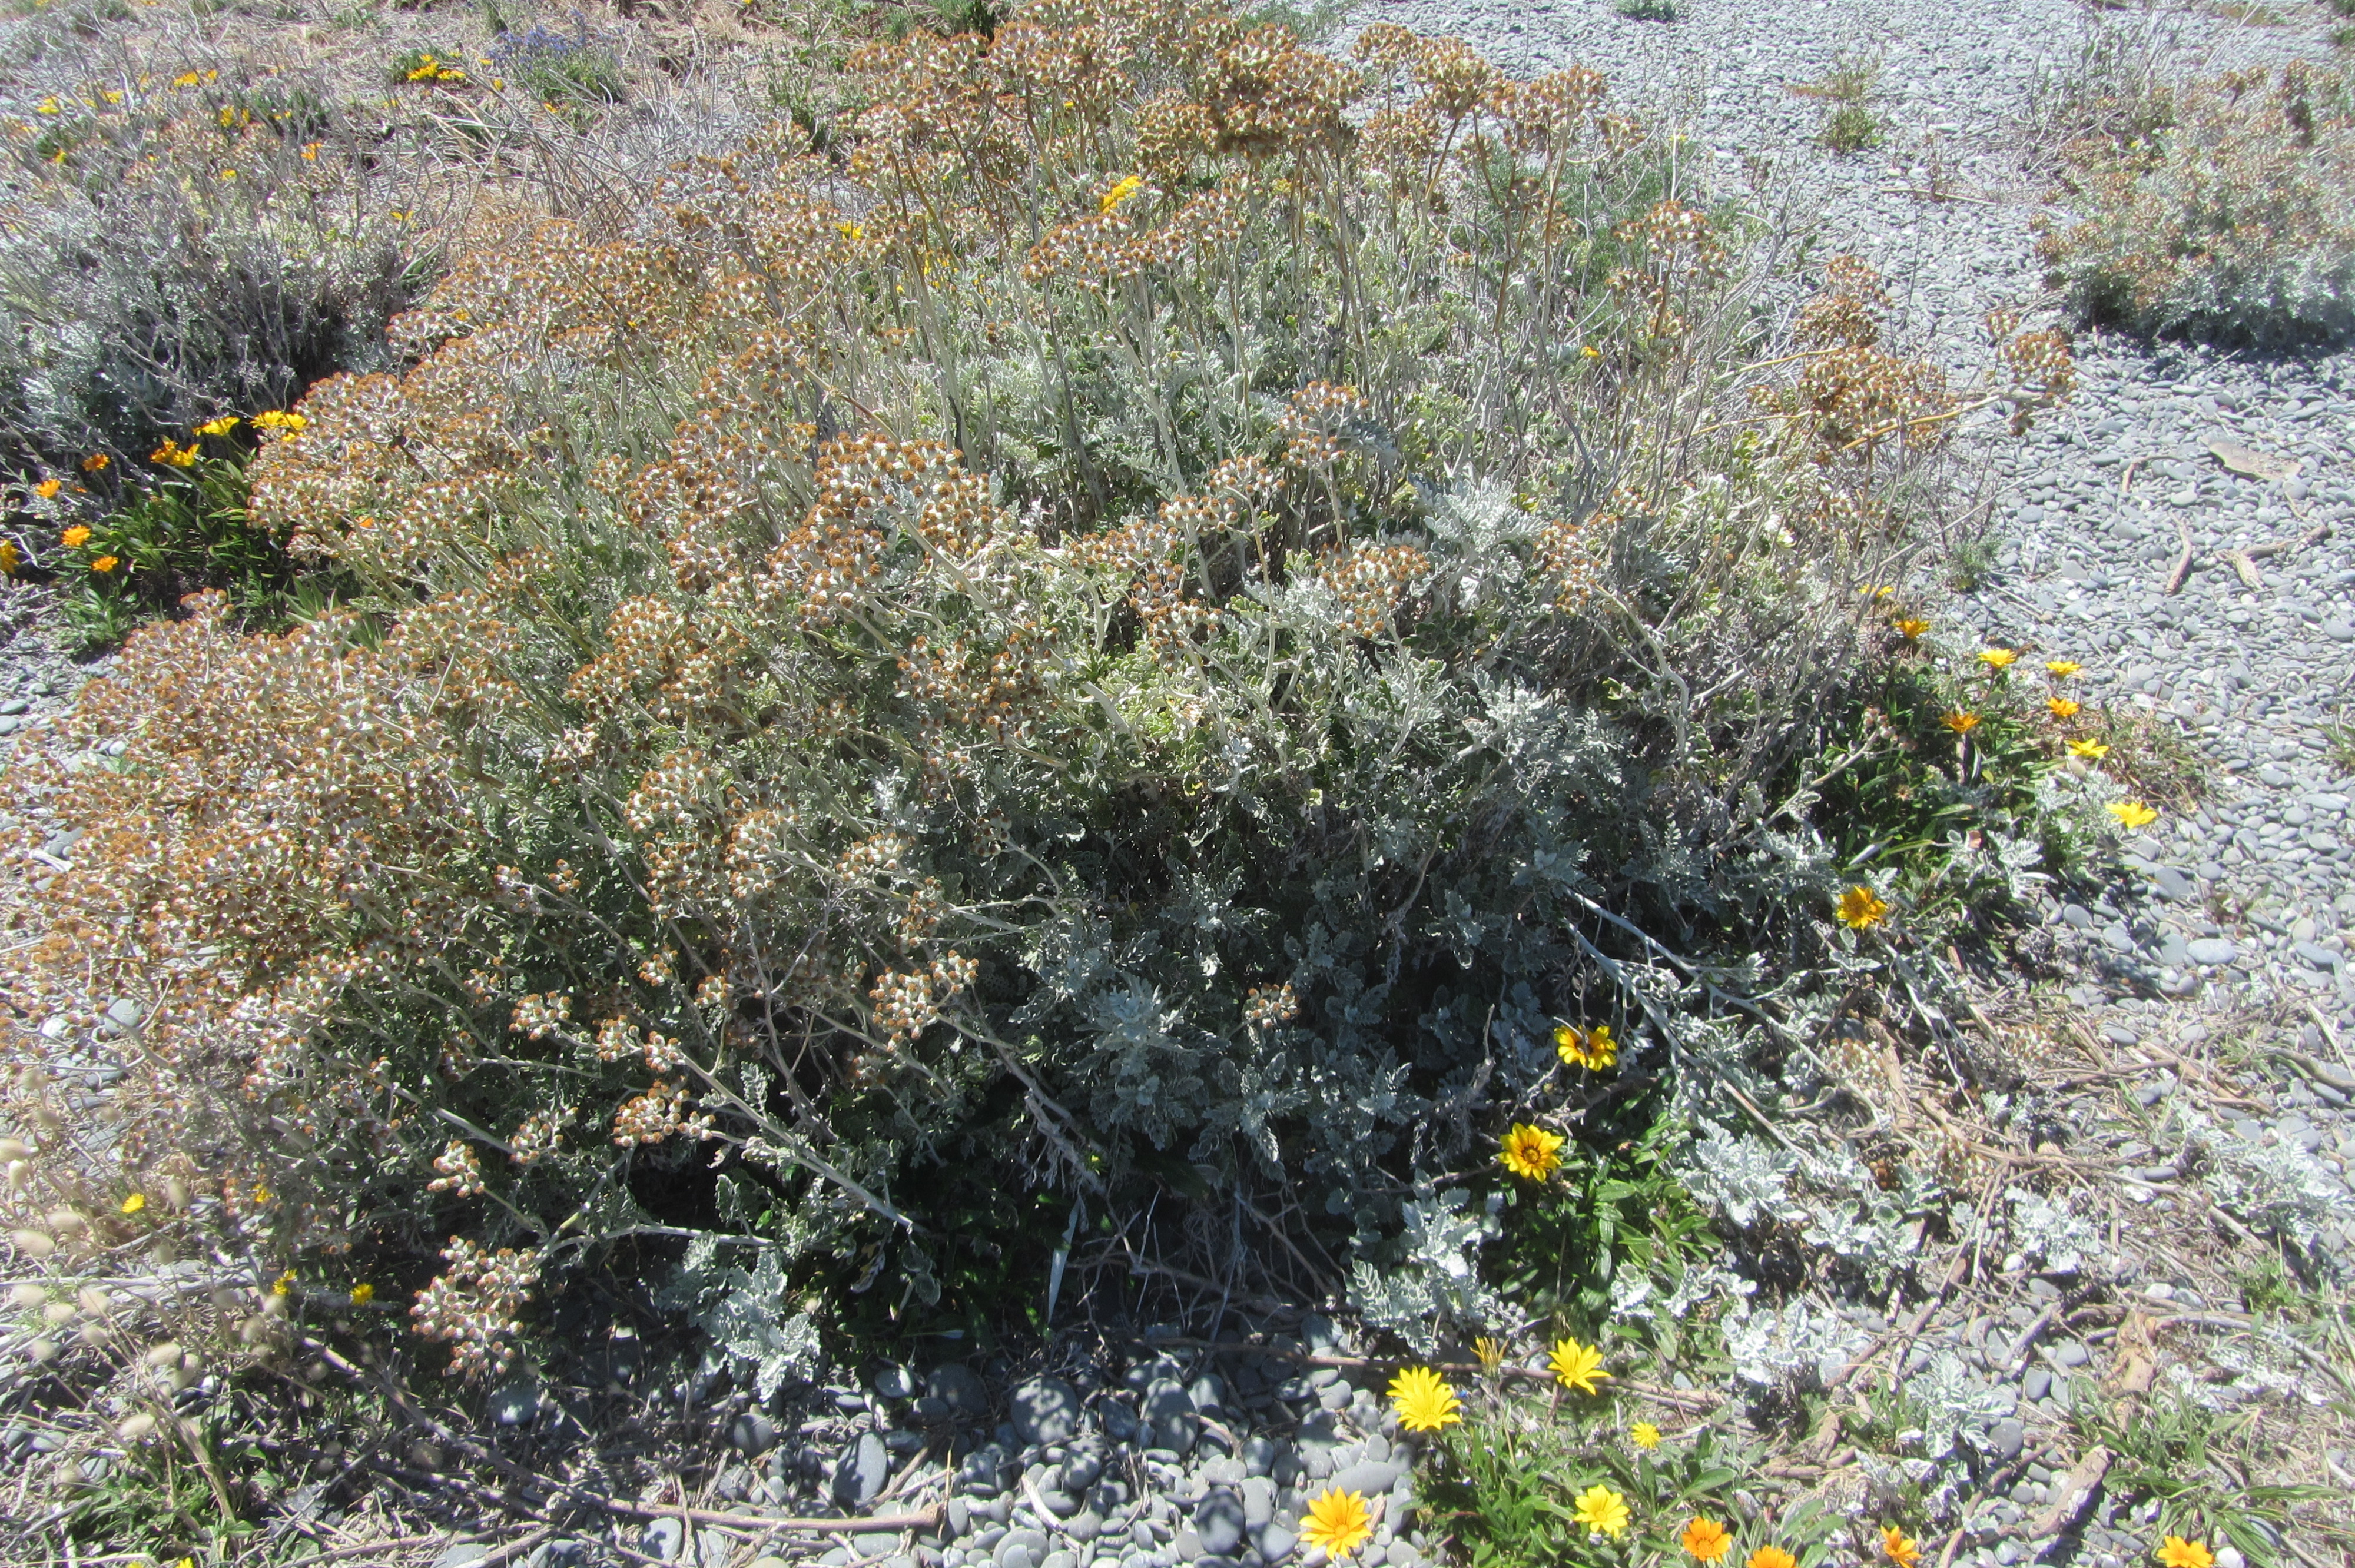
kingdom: Plantae
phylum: Tracheophyta
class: Magnoliopsida
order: Asterales
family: Asteraceae
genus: Jacobaea
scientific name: Jacobaea maritima
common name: Silver ragwort
